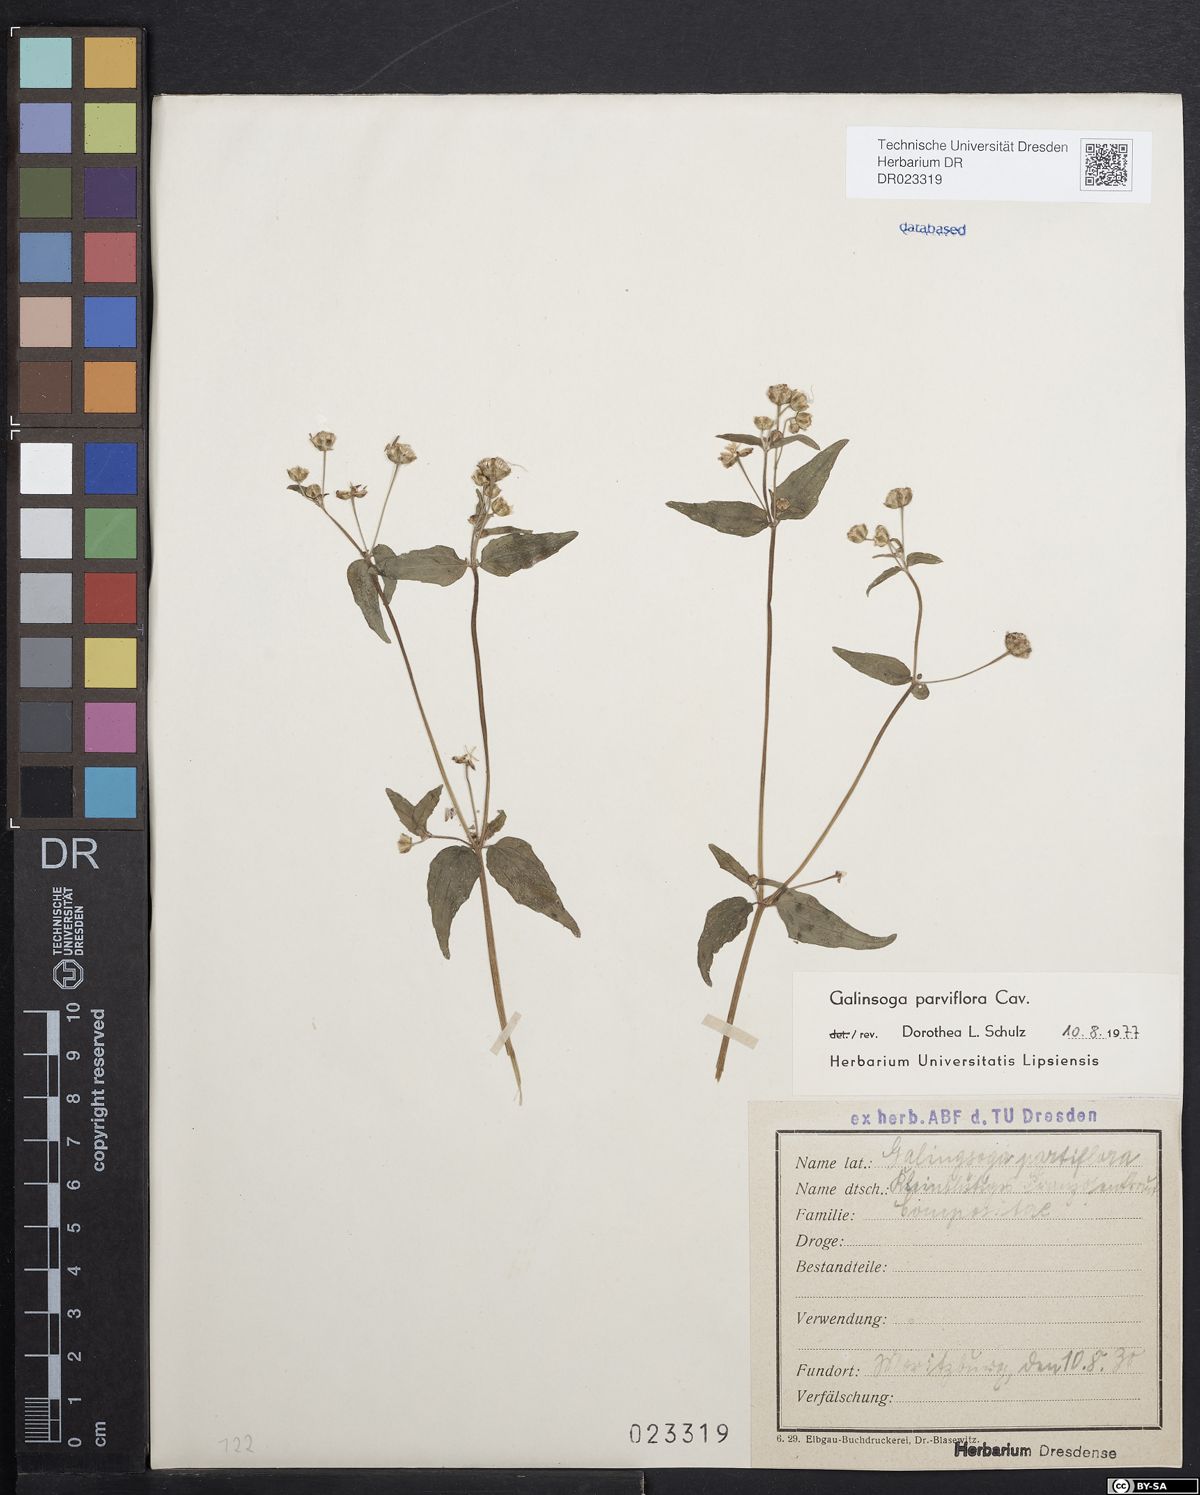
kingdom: Plantae
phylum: Tracheophyta
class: Magnoliopsida
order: Asterales
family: Asteraceae
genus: Galinsoga
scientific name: Galinsoga parviflora
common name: Gallant soldier
